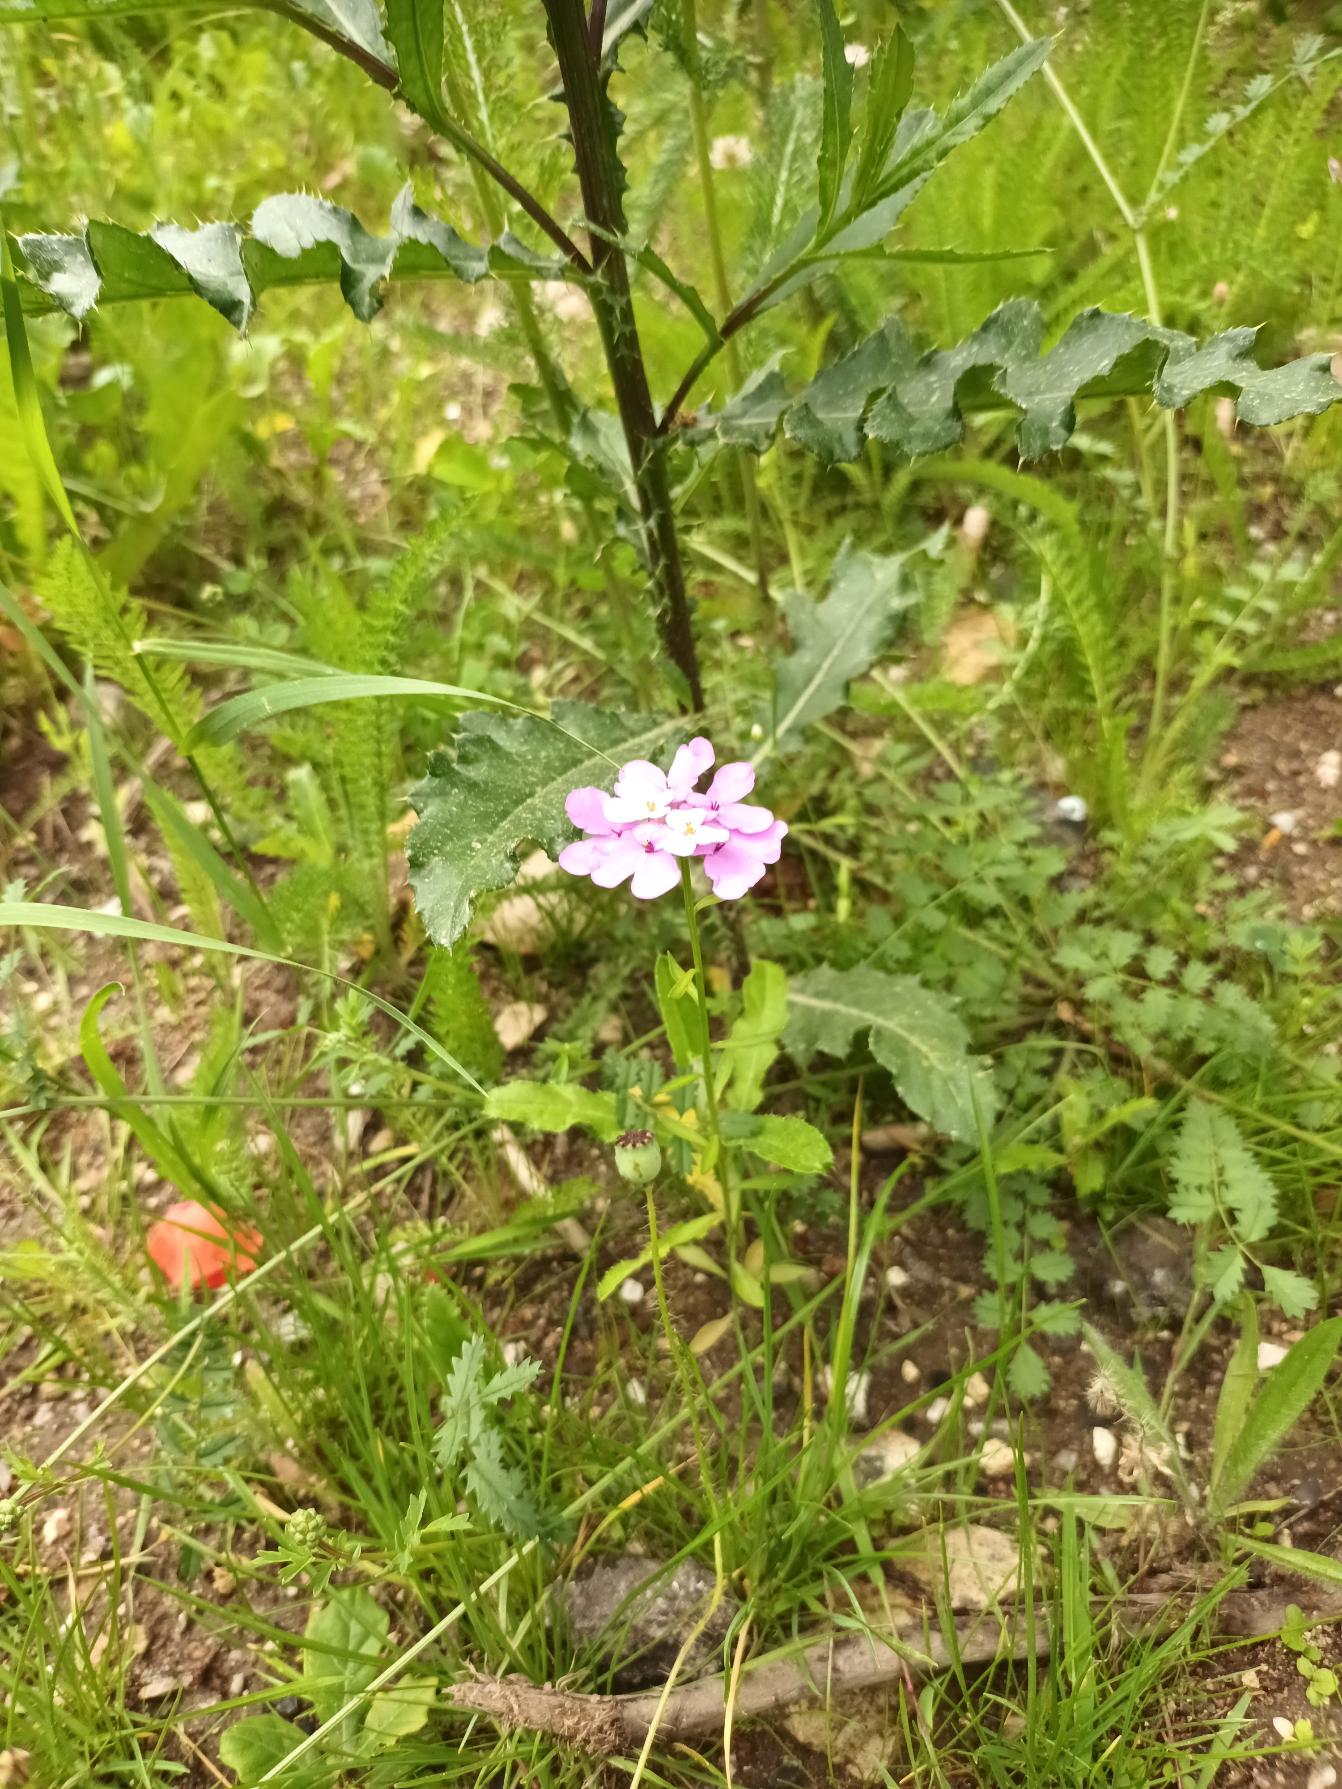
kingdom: Plantae
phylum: Tracheophyta
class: Magnoliopsida
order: Brassicales
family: Brassicaceae
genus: Iberis
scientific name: Iberis umbellata
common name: Skærm-sløjfeblomst
